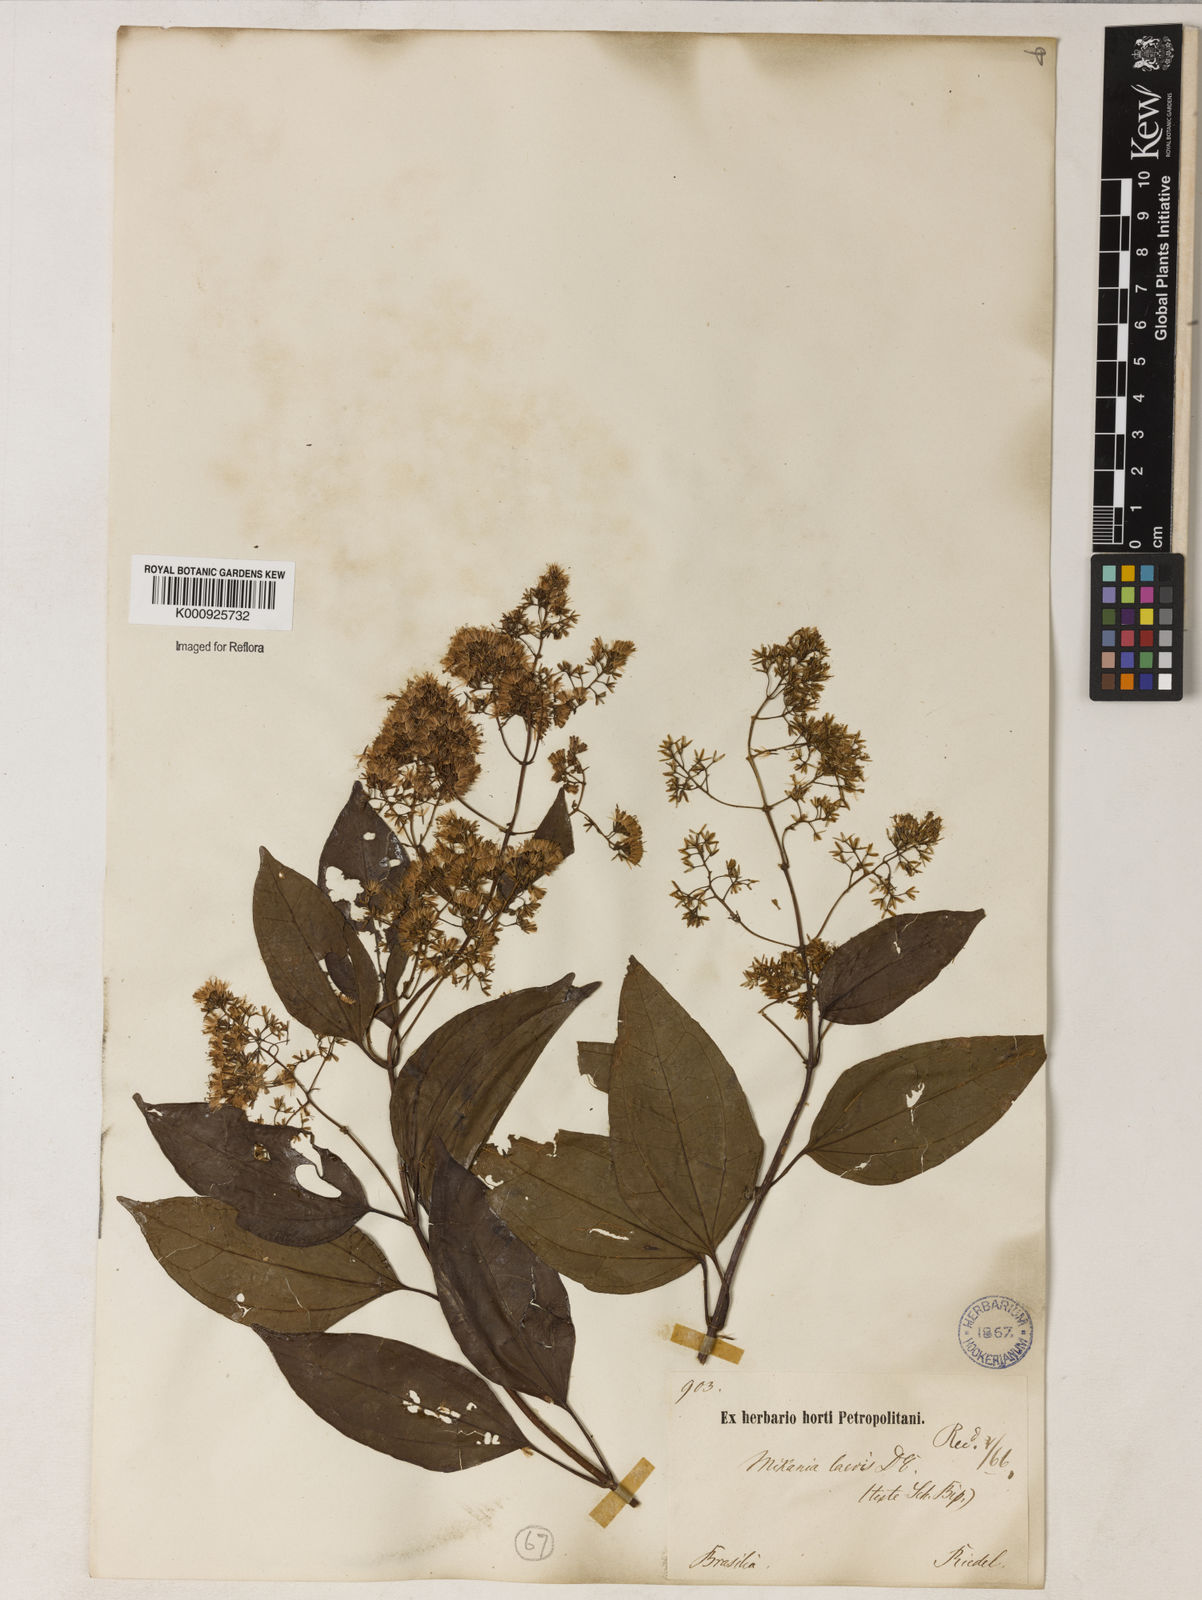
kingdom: Plantae
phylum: Tracheophyta
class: Magnoliopsida
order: Asterales
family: Asteraceae
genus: Mikania
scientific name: Mikania trinervis
